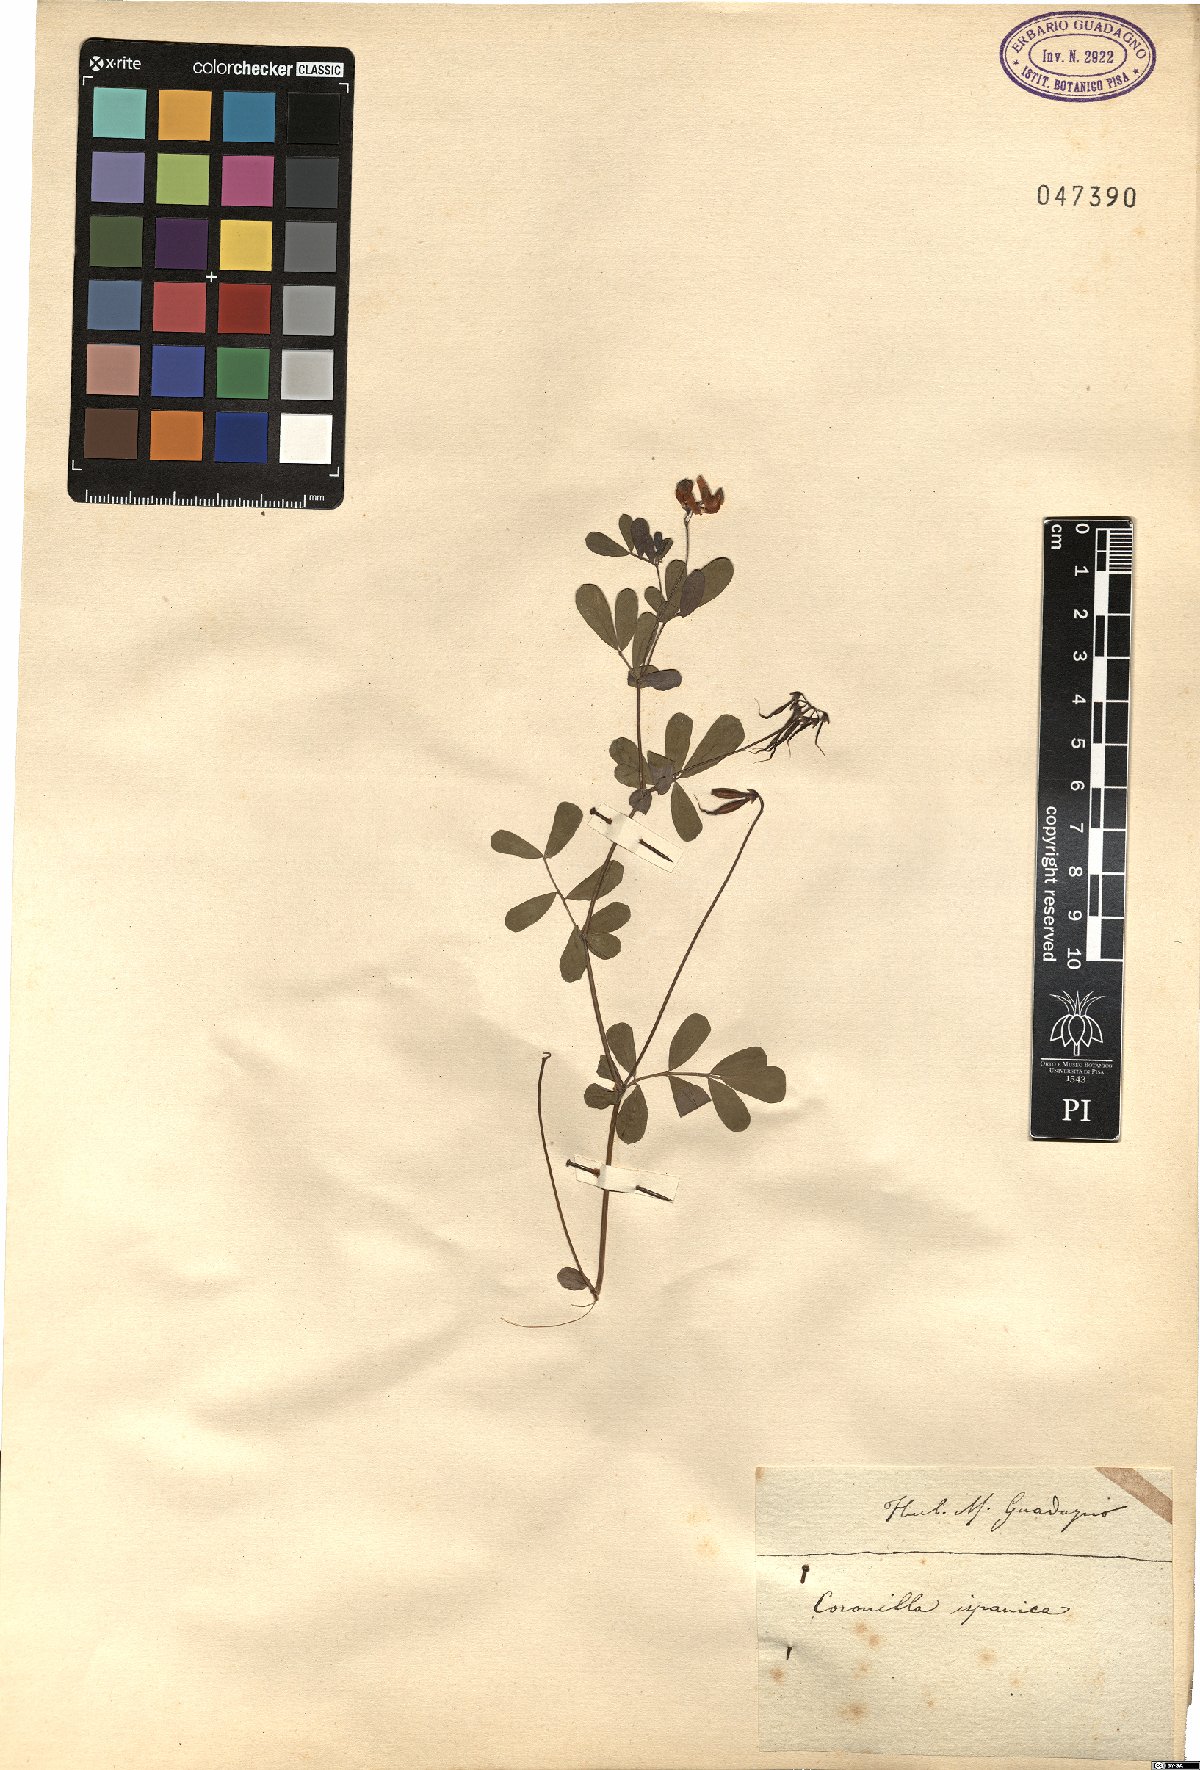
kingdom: Plantae
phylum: Tracheophyta
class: Magnoliopsida
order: Fabales
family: Fabaceae
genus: Coronilla
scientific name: Coronilla valentina
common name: Shrubby scorpion-vetch
